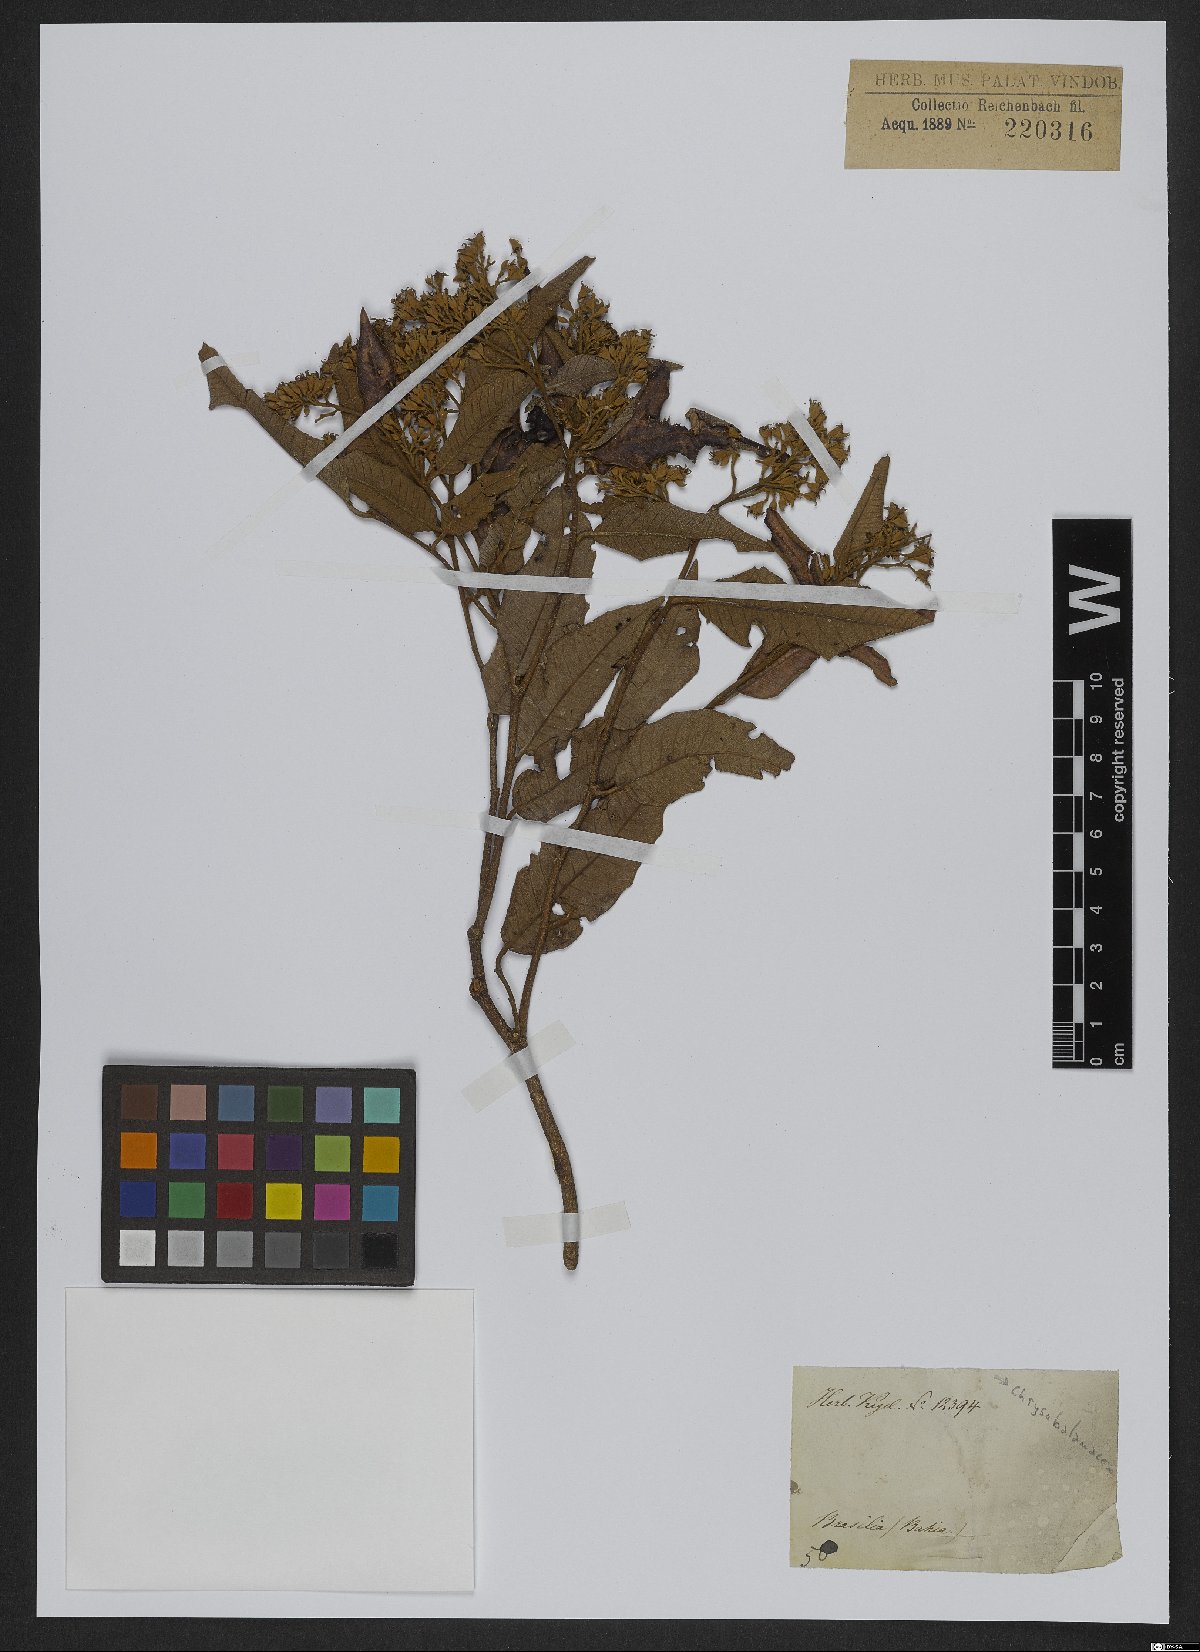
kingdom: Plantae
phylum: Tracheophyta
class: Magnoliopsida
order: Malpighiales
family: Chrysobalanaceae
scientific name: Chrysobalanaceae
